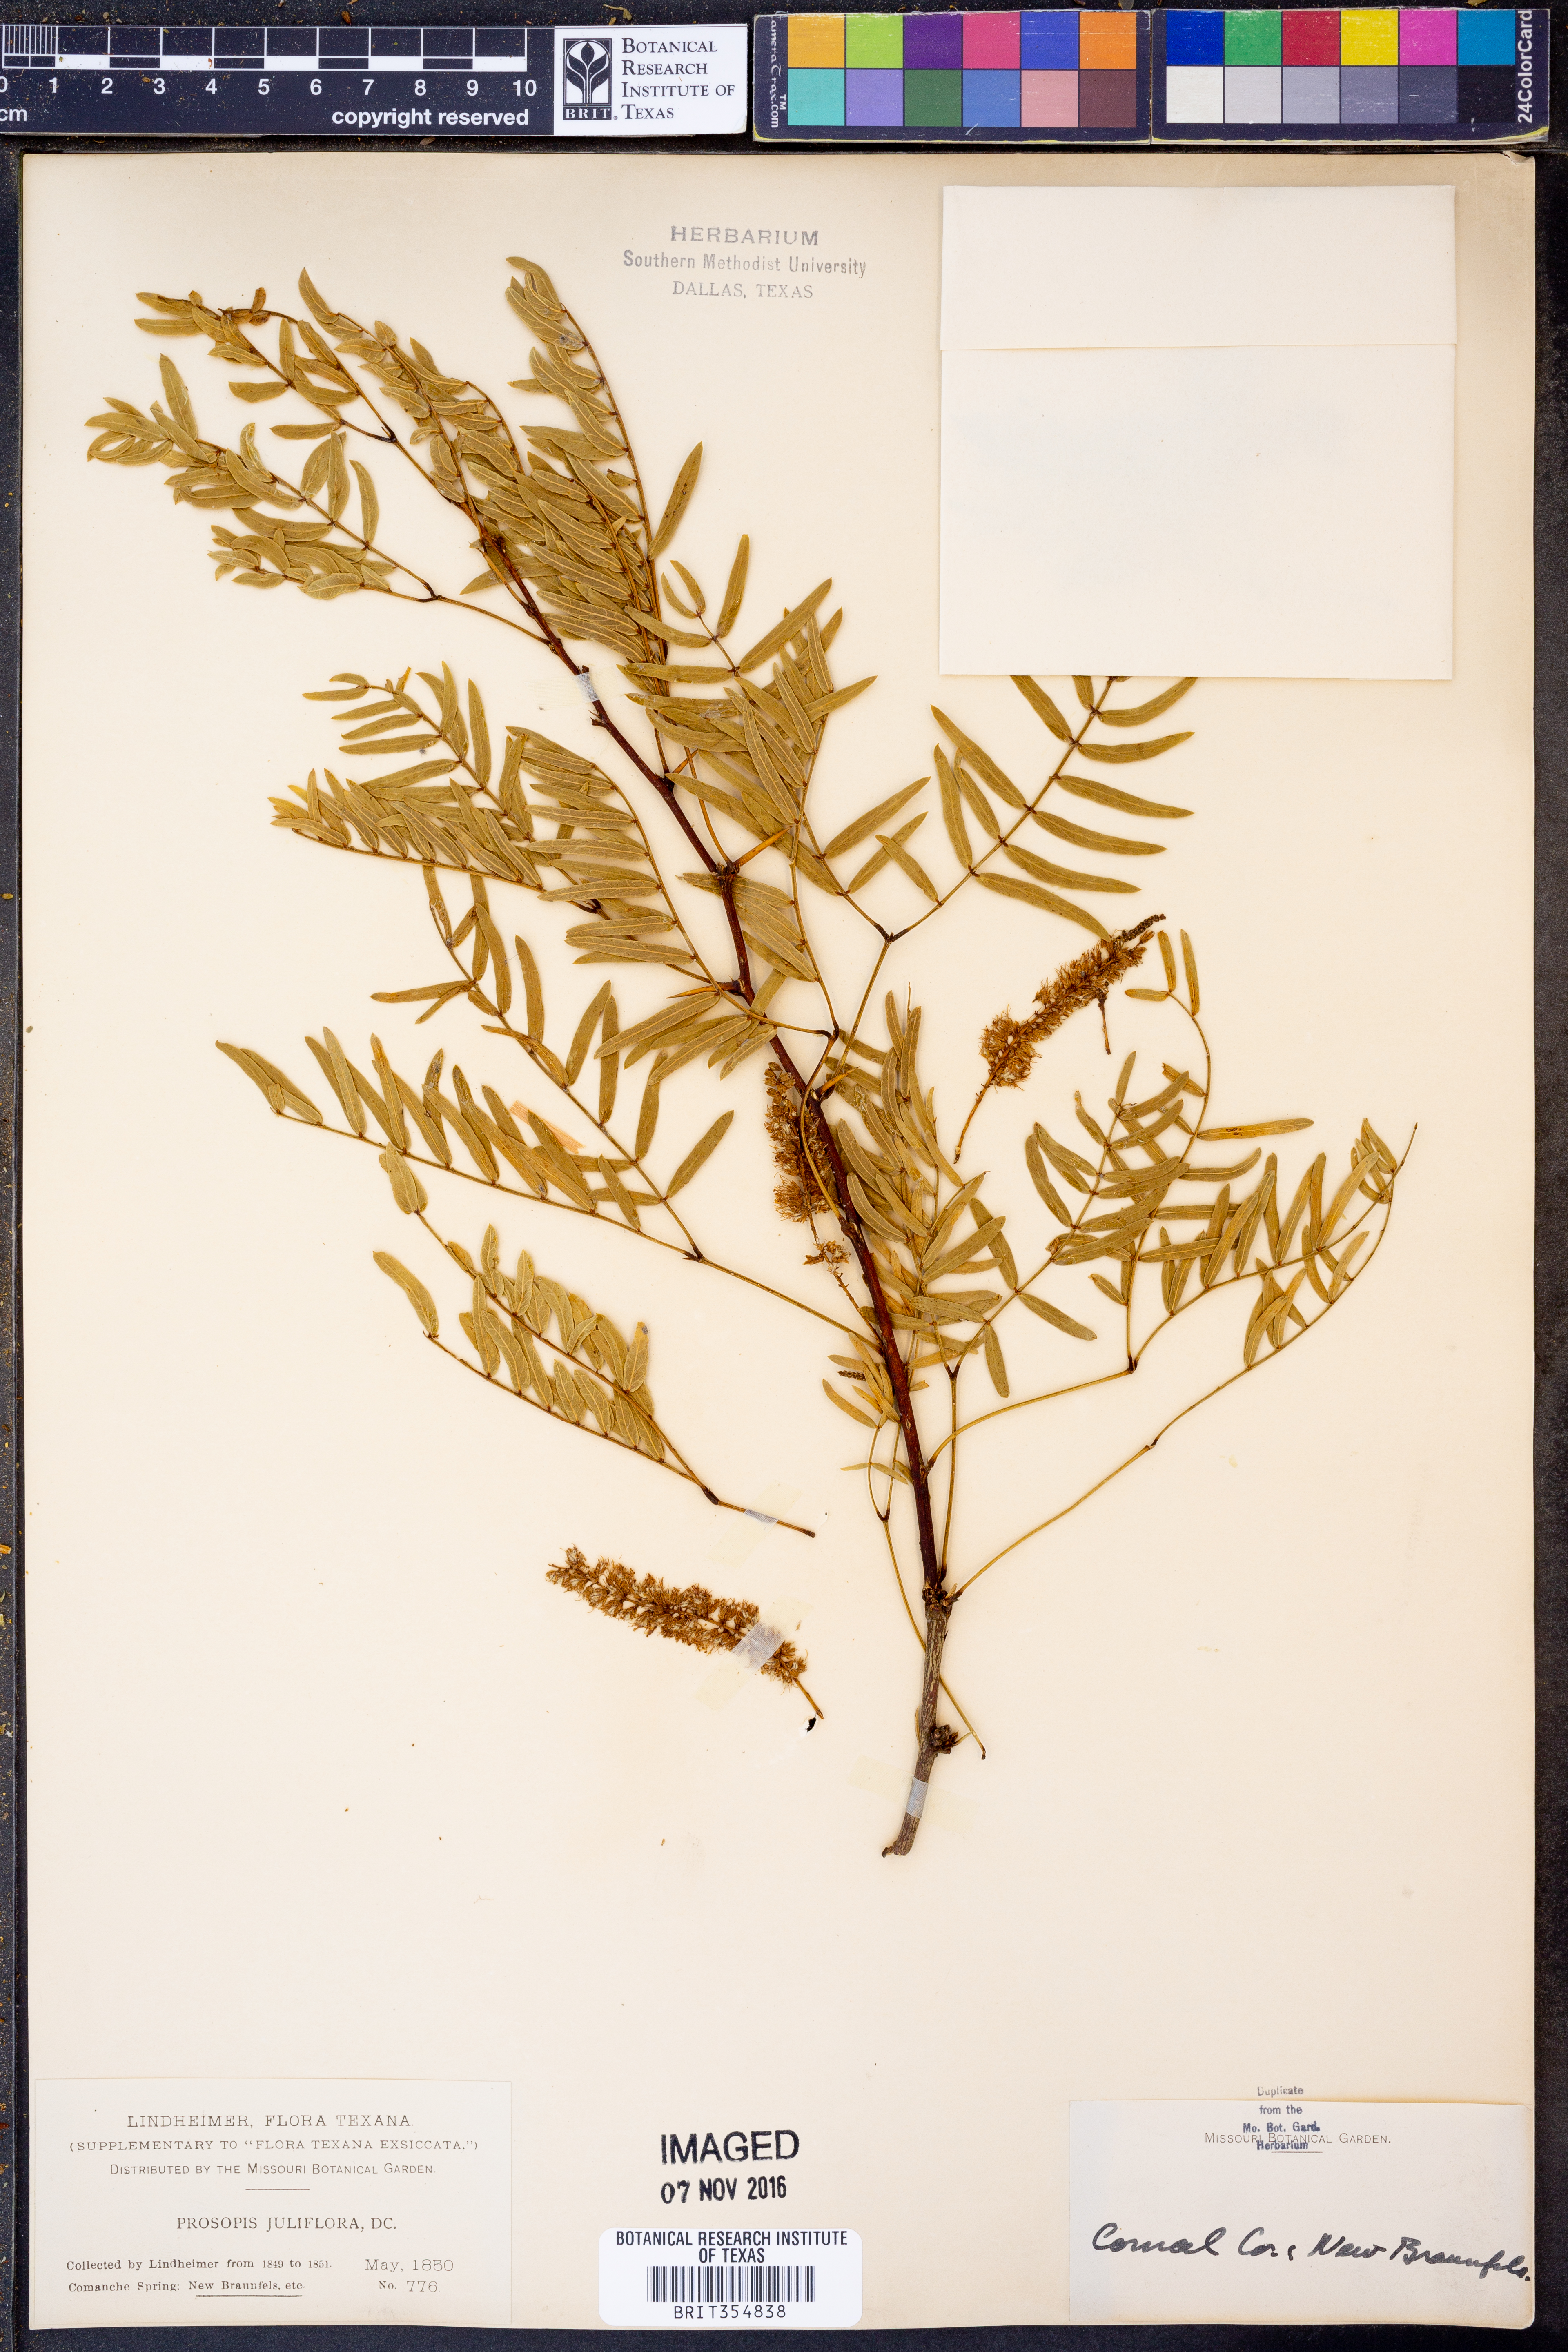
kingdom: Plantae
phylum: Tracheophyta
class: Magnoliopsida
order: Fabales
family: Fabaceae
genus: Prosopis
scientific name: Prosopis juliflora
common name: Mesquite
